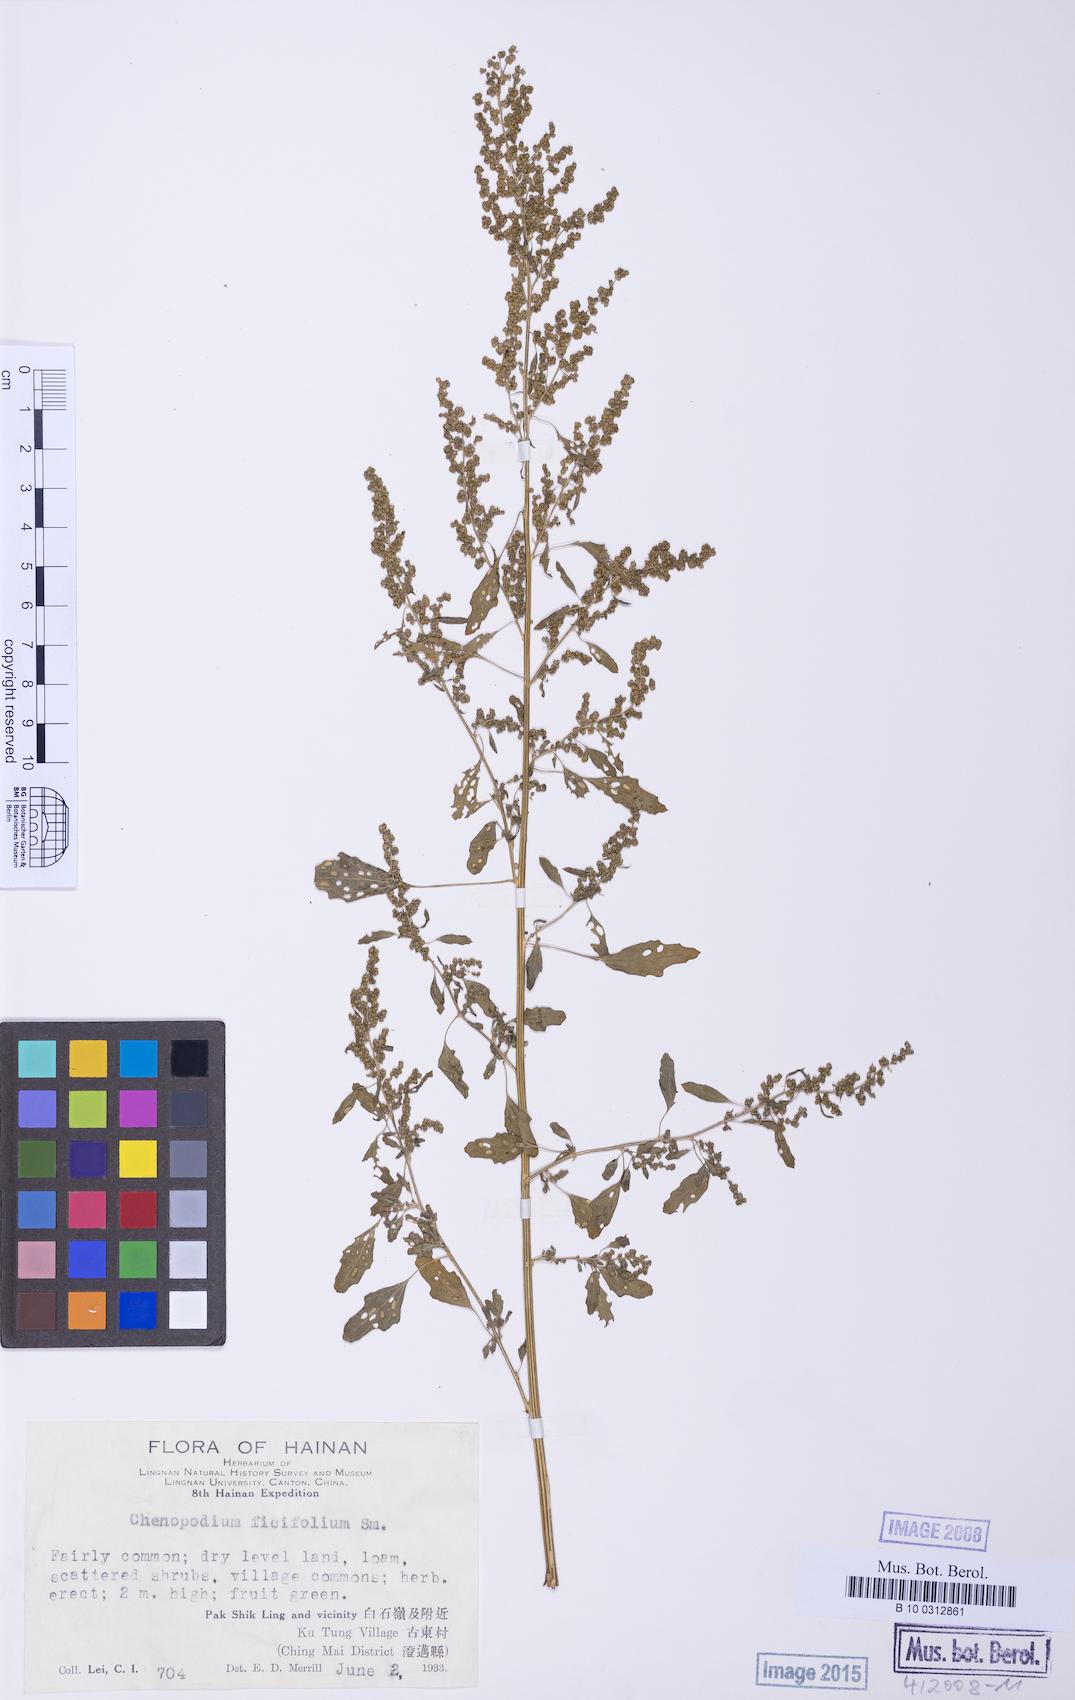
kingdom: Plantae
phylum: Tracheophyta
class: Magnoliopsida
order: Caryophyllales
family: Amaranthaceae
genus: Chenopodium
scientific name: Chenopodium ficifolium
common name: Fig-leaved goosefoot
